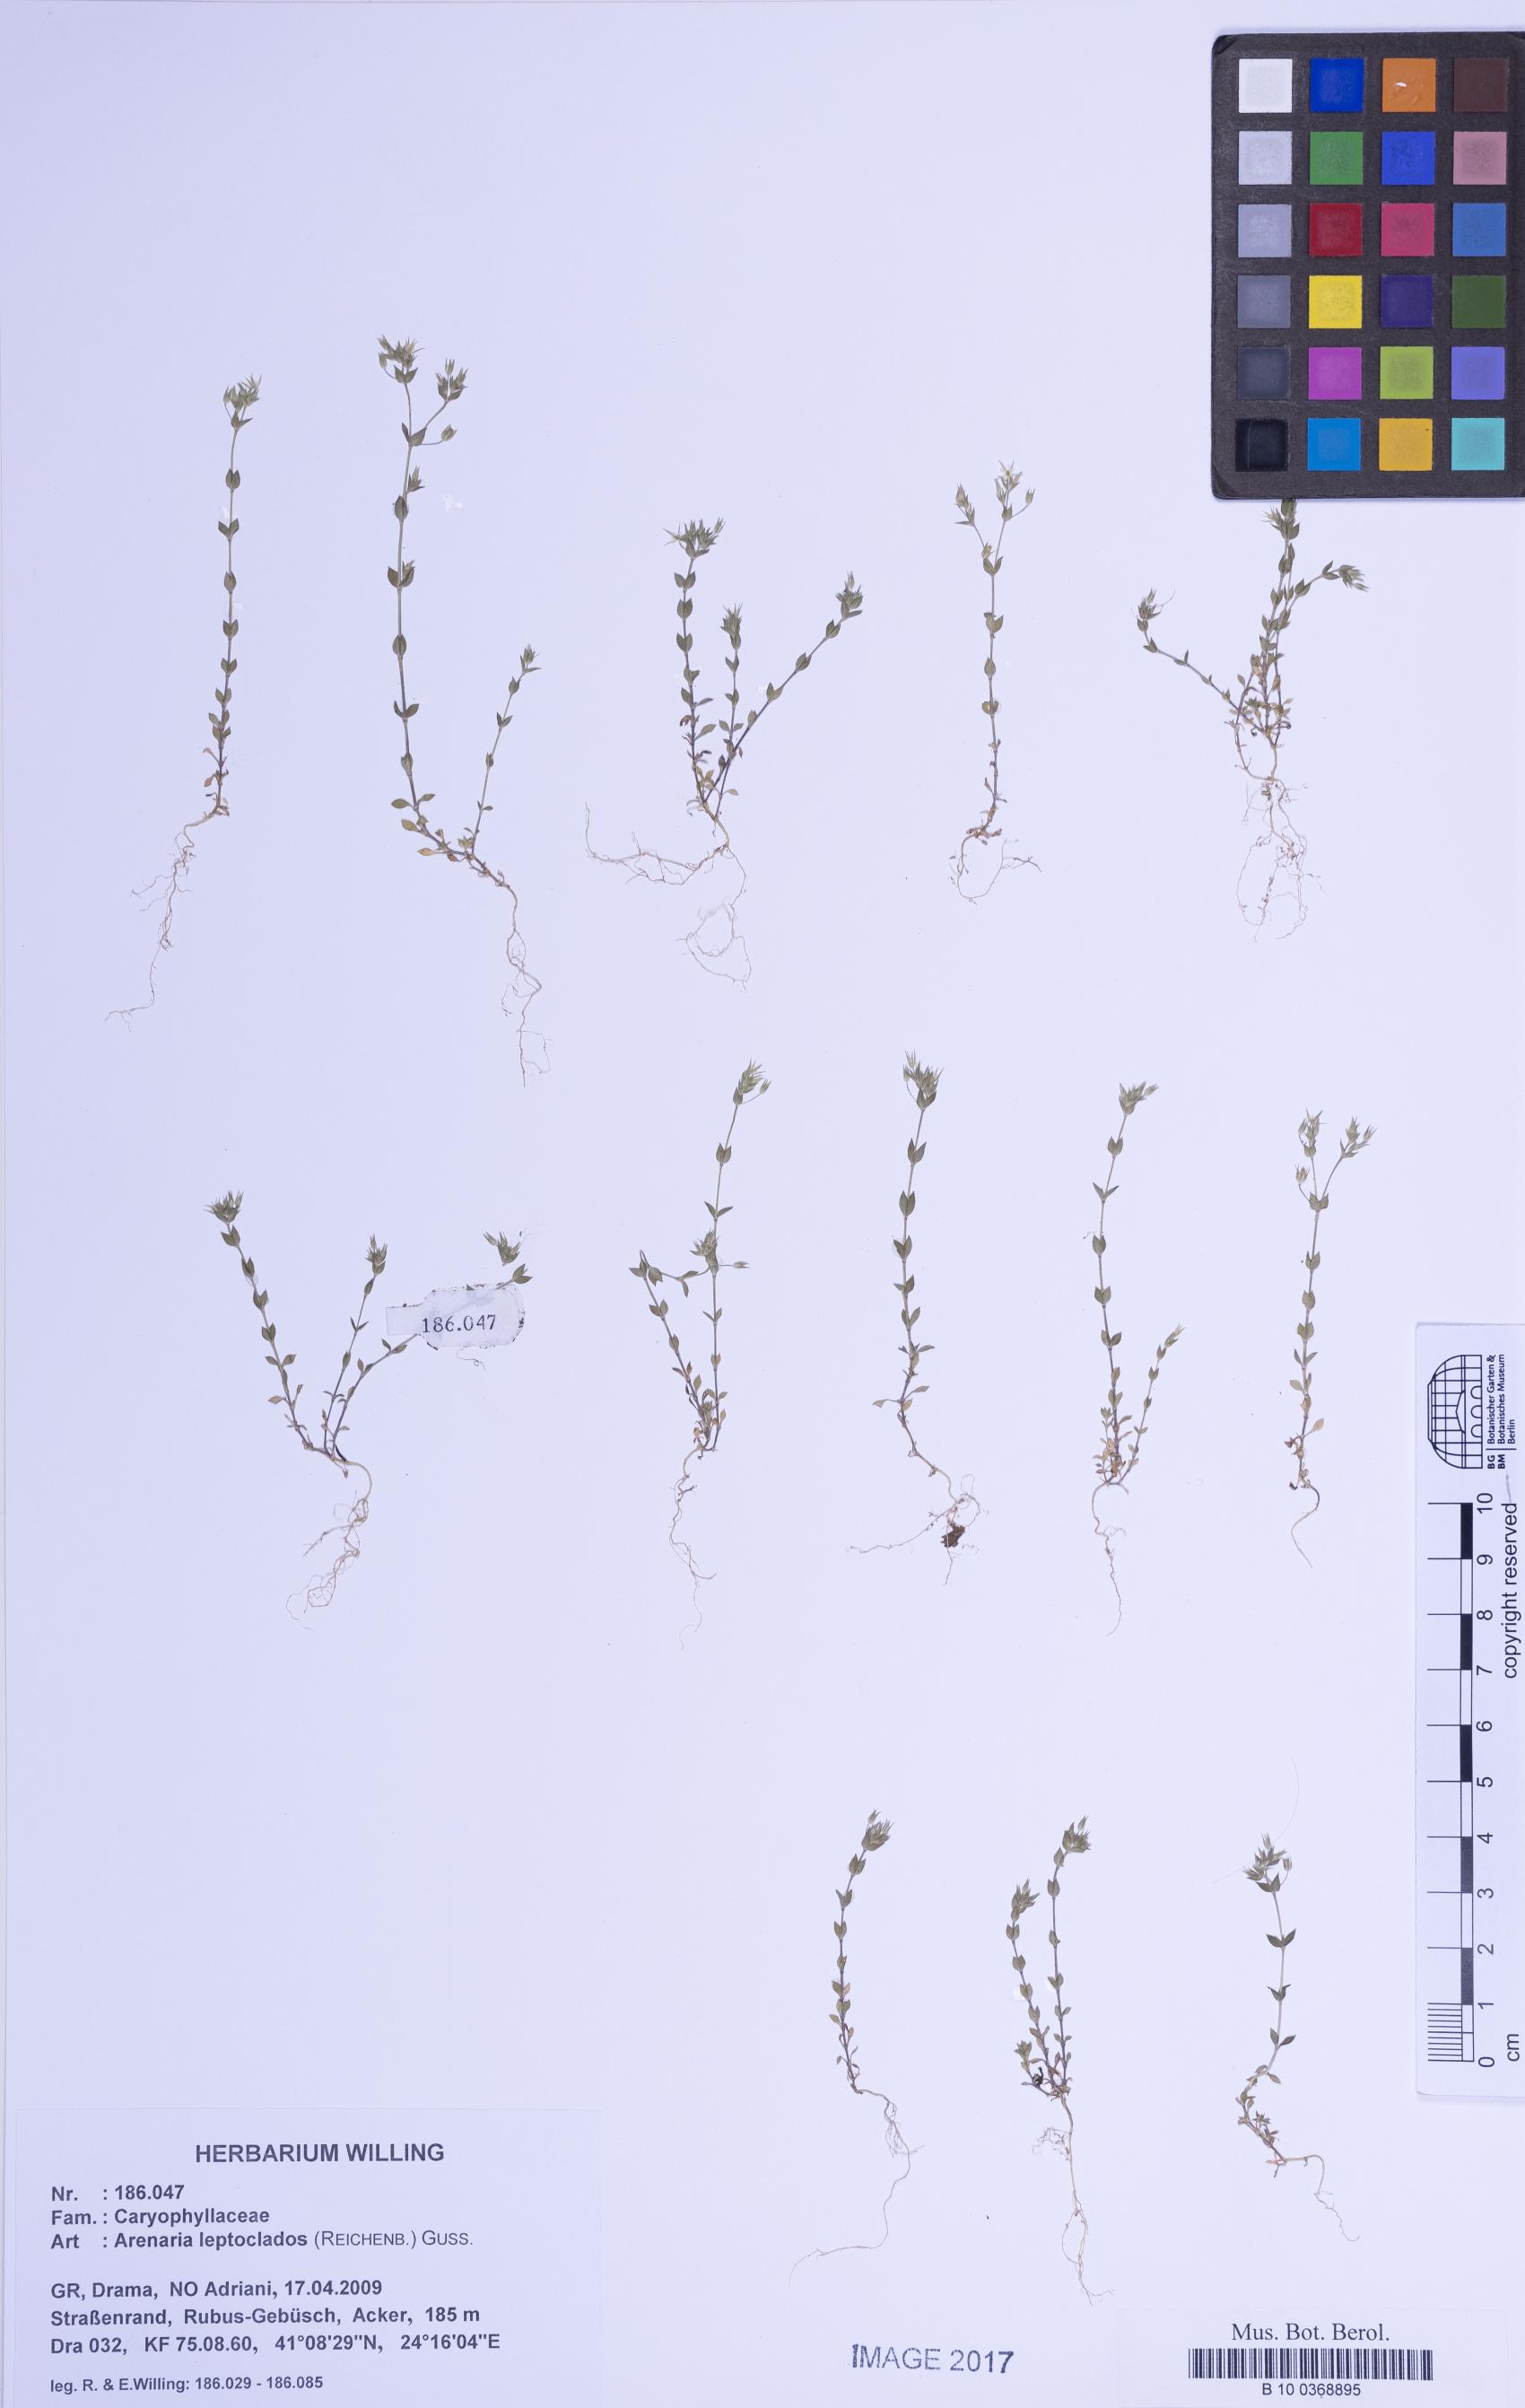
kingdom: Plantae
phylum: Tracheophyta
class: Magnoliopsida
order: Caryophyllales
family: Caryophyllaceae
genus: Arenaria
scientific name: Arenaria leptoclados
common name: Thyme-leaved sandwort
